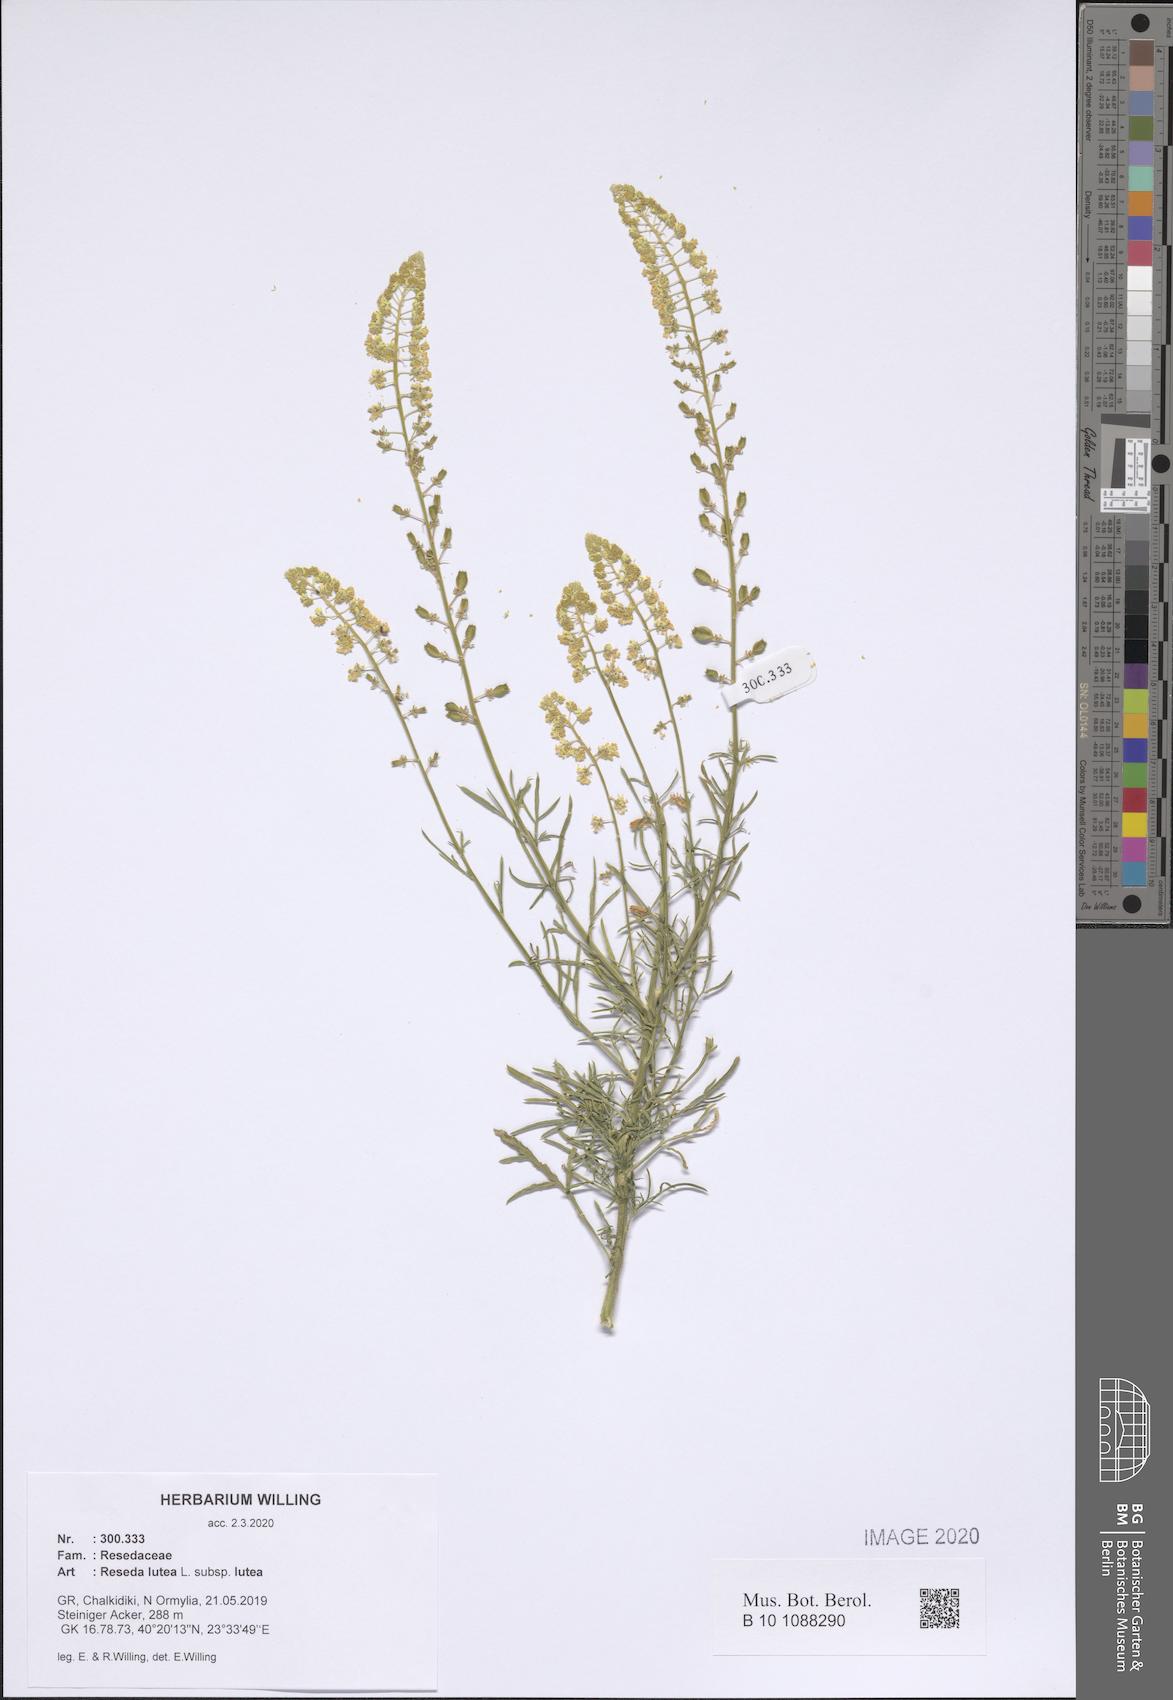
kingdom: Plantae
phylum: Tracheophyta
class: Magnoliopsida
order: Brassicales
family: Resedaceae
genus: Reseda
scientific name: Reseda lutea
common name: Wild mignonette
